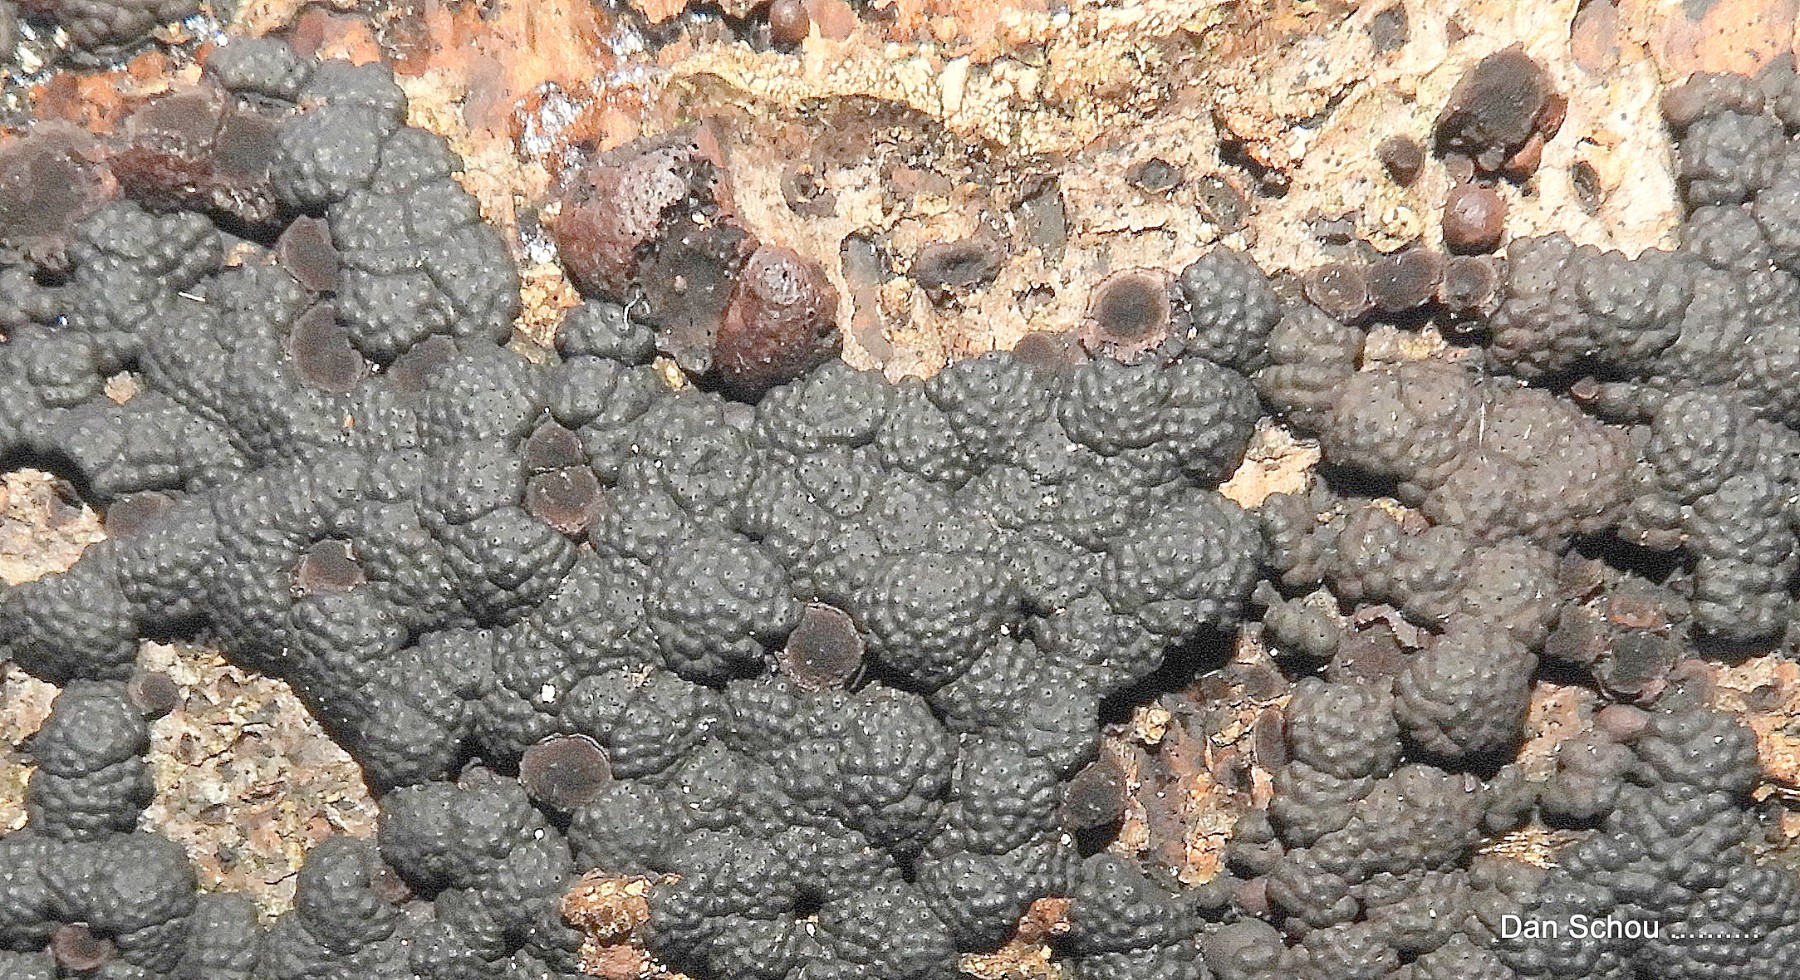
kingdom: Fungi
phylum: Ascomycota
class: Sordariomycetes
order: Xylariales
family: Hypoxylaceae
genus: Jackrogersella
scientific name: Jackrogersella cohaerens
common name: sammenflydende kulbær
